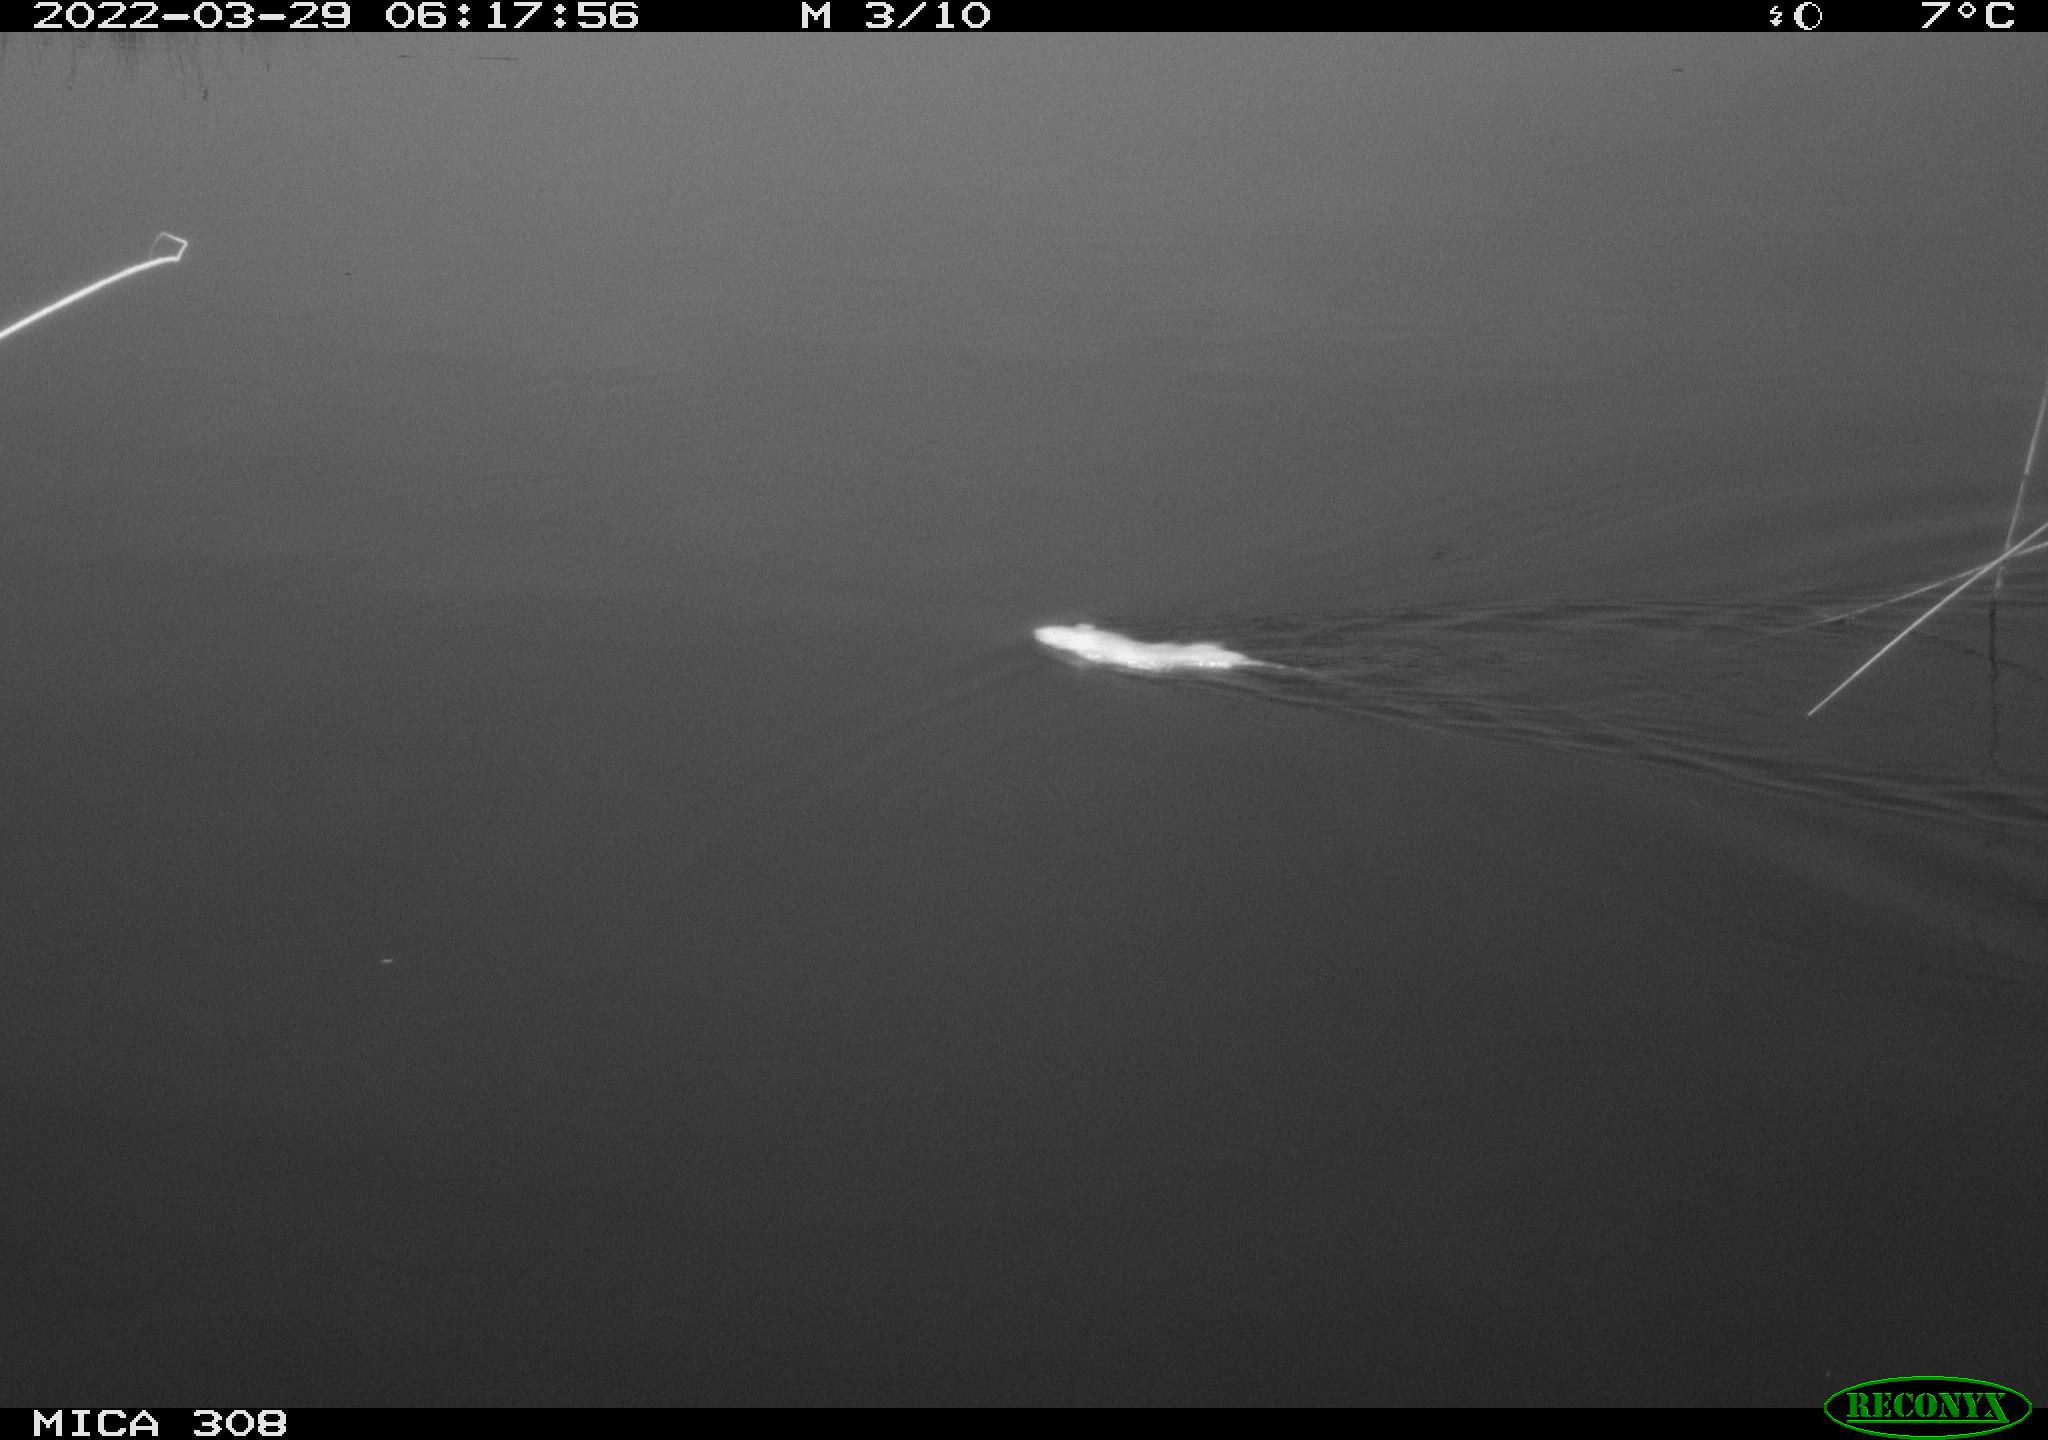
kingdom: Animalia
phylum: Chordata
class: Mammalia
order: Rodentia
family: Muridae
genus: Rattus
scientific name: Rattus norvegicus
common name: Brown rat
